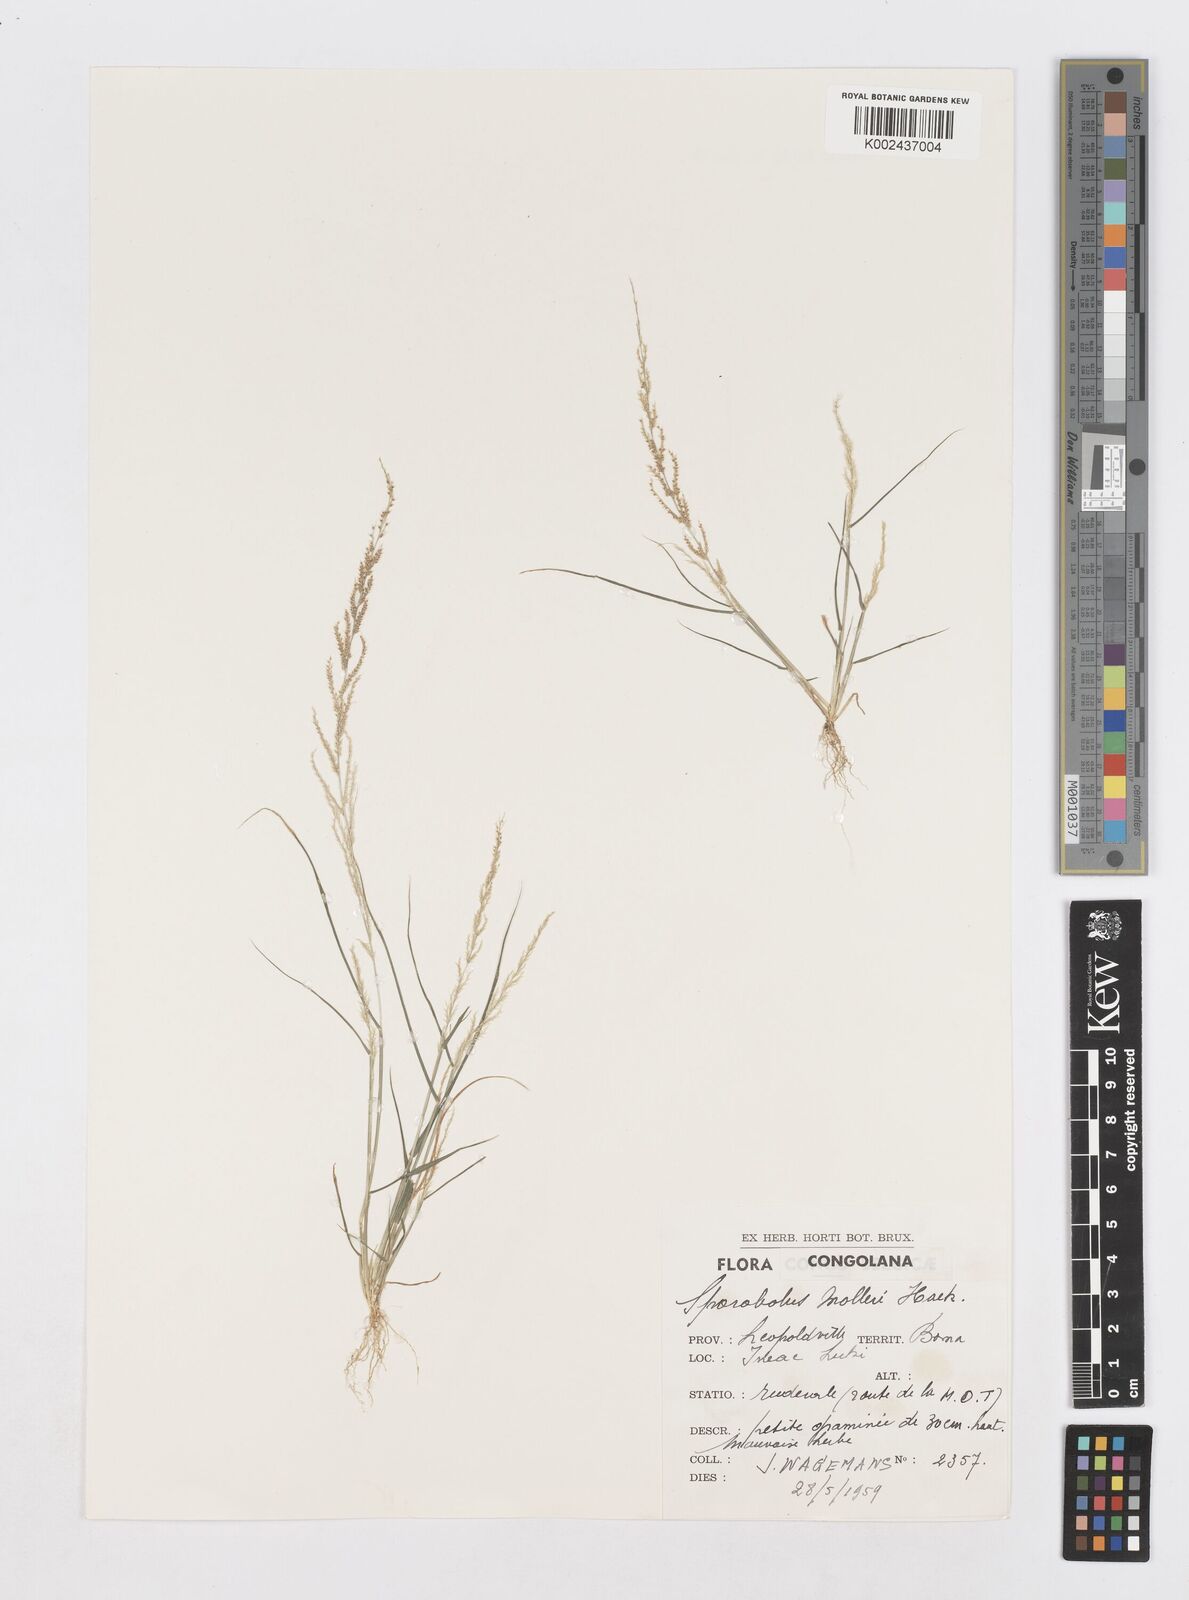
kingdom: Plantae
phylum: Tracheophyta
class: Liliopsida
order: Poales
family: Poaceae
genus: Sporobolus
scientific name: Sporobolus molleri
